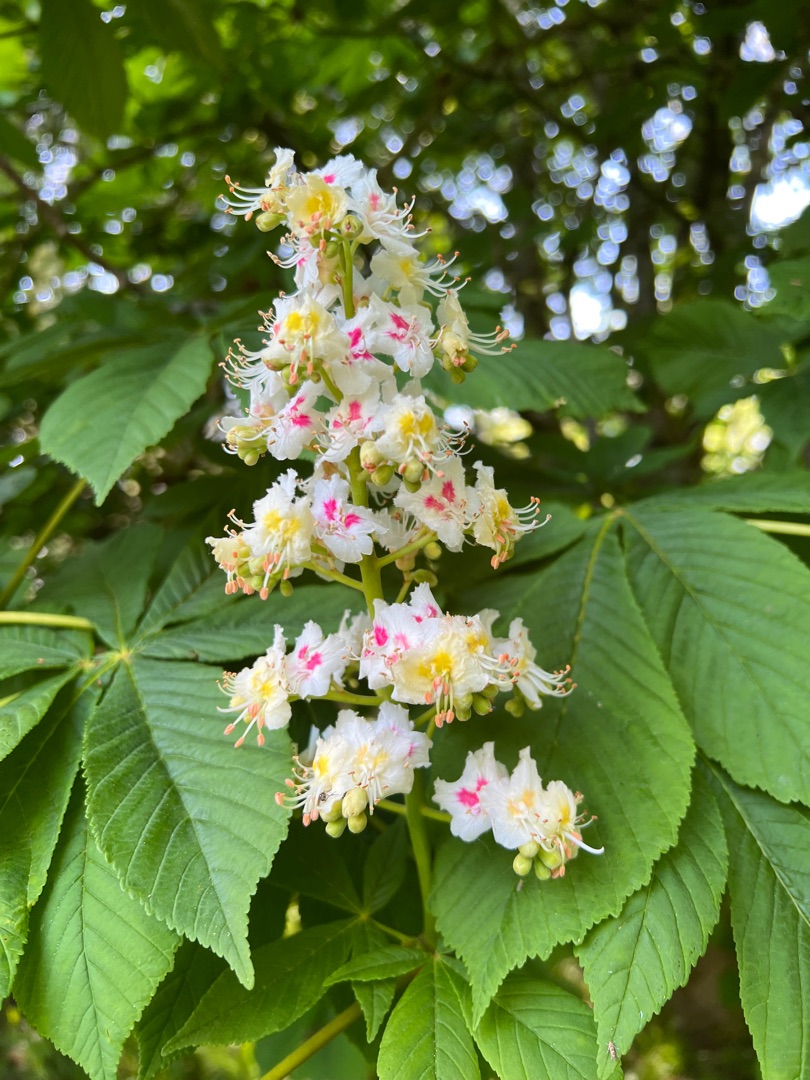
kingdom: Plantae
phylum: Tracheophyta
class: Magnoliopsida
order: Sapindales
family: Sapindaceae
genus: Aesculus
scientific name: Aesculus hippocastanum
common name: Hestekastanie
